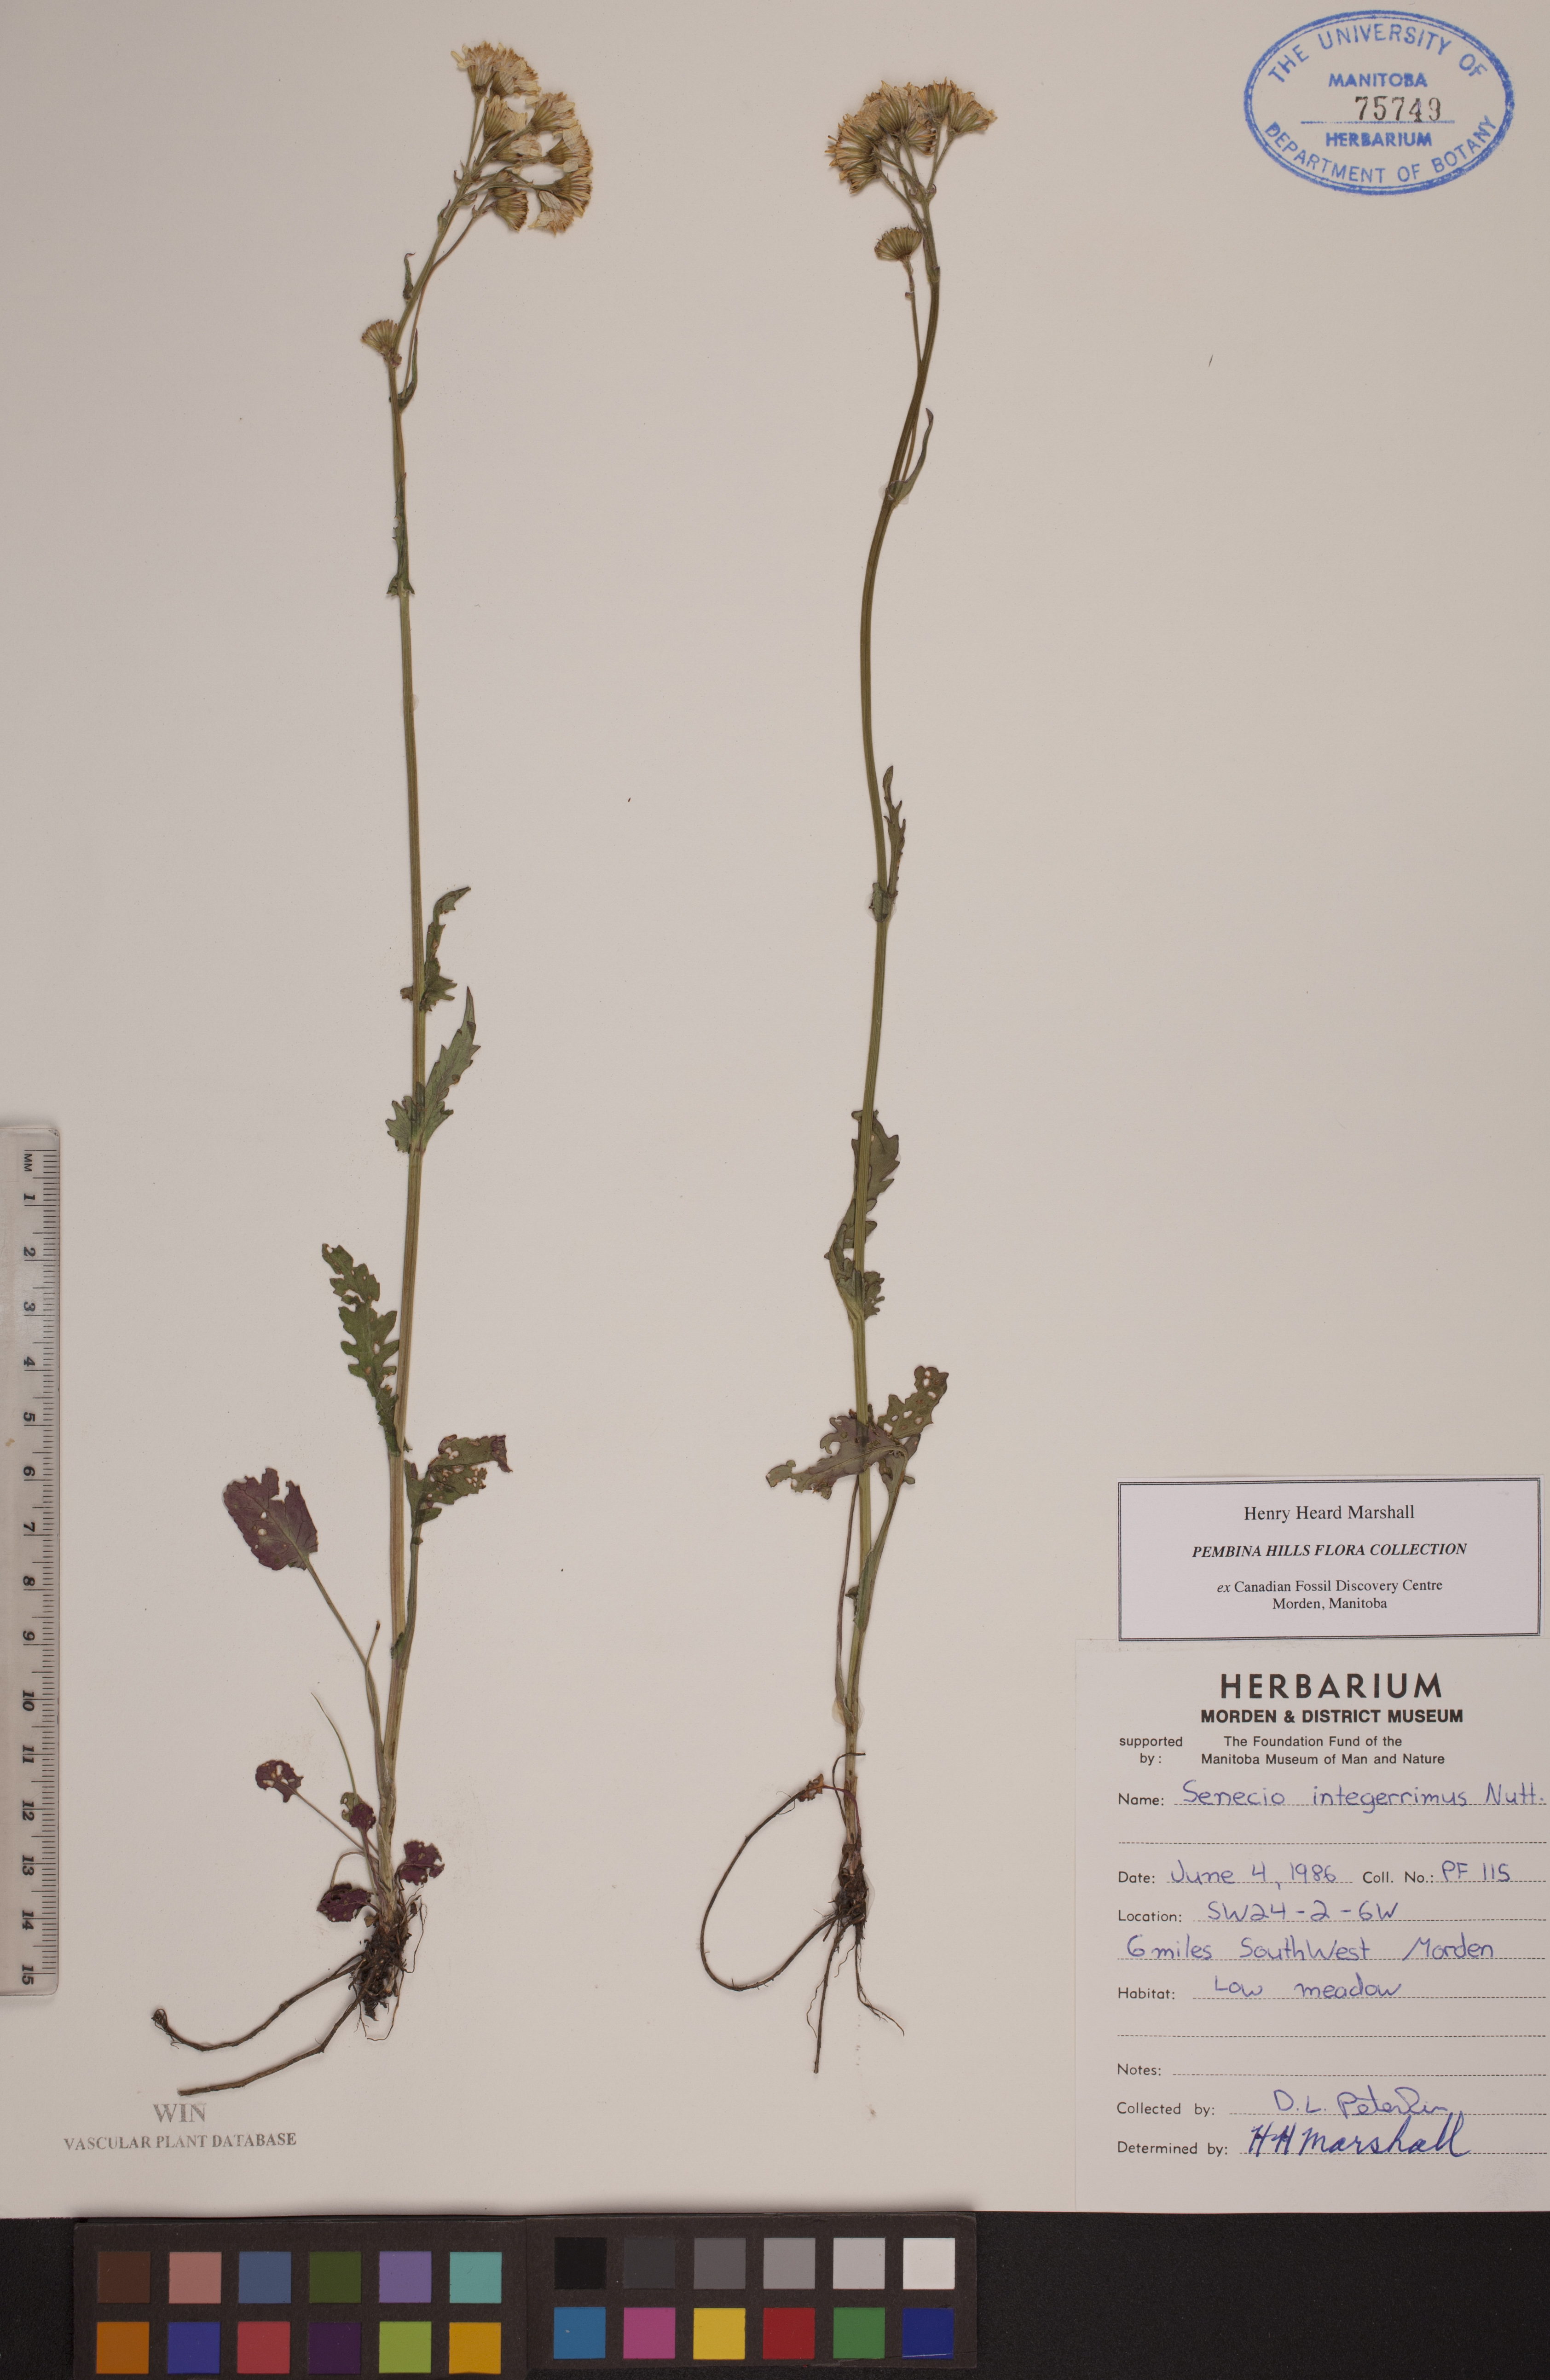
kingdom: Plantae
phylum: Tracheophyta
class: Magnoliopsida
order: Asterales
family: Asteraceae
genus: Senecio
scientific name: Senecio integerrimus
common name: Gaugeplant
